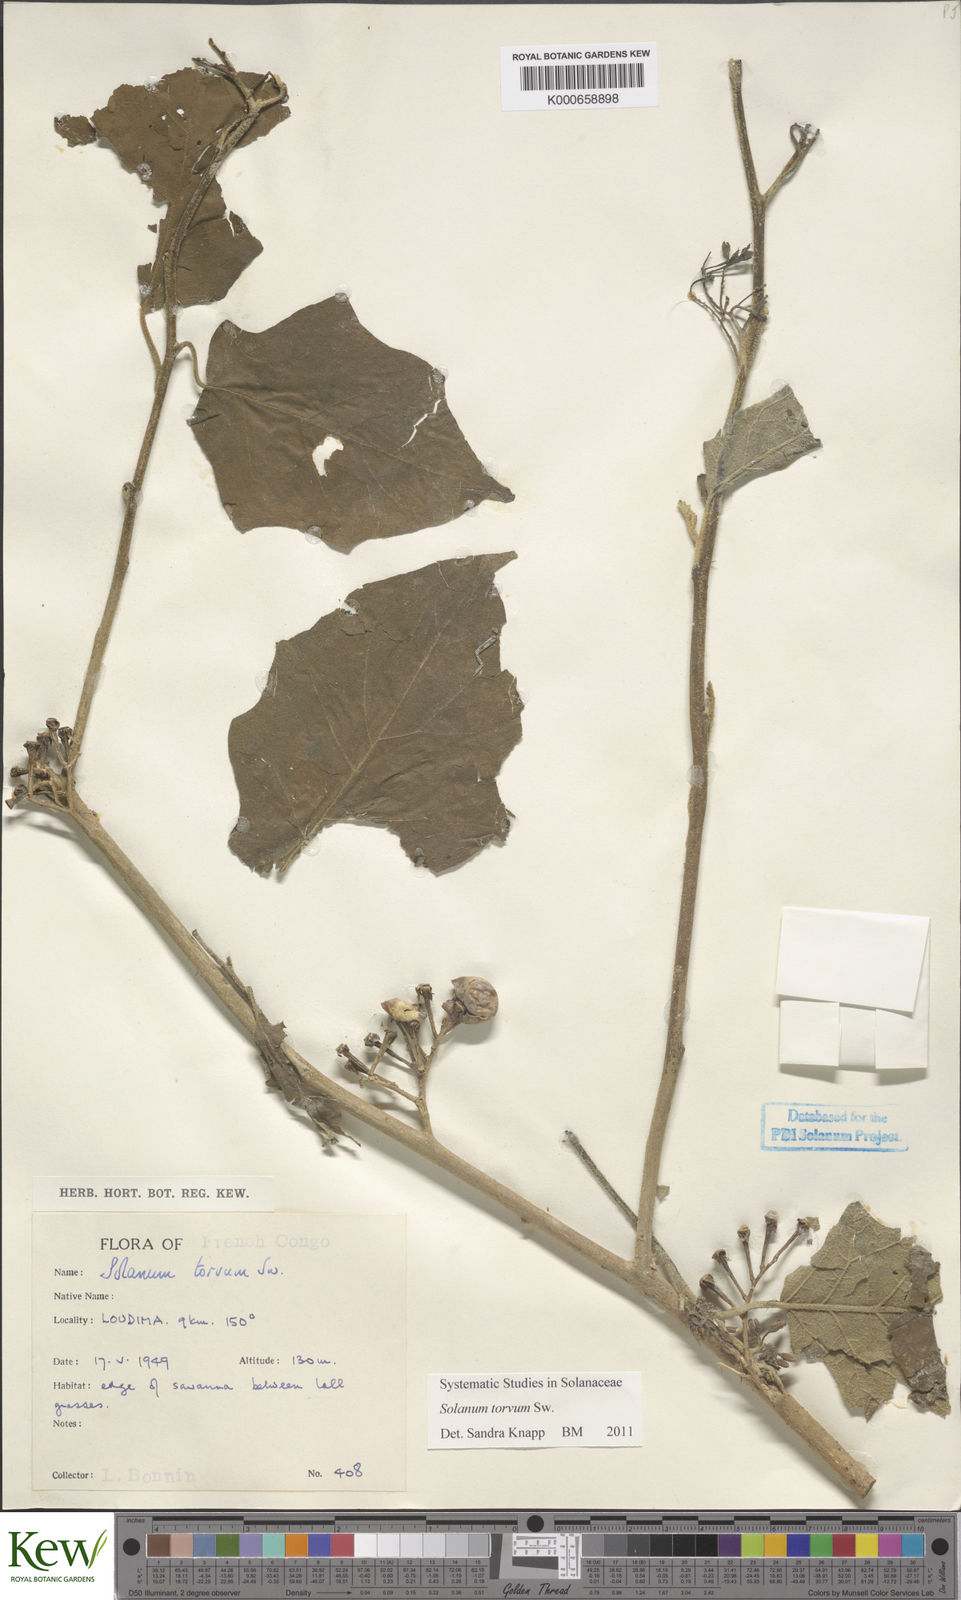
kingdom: Plantae
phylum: Tracheophyta
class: Magnoliopsida
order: Solanales
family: Solanaceae
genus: Solanum
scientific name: Solanum torvum
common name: Turkey berry
